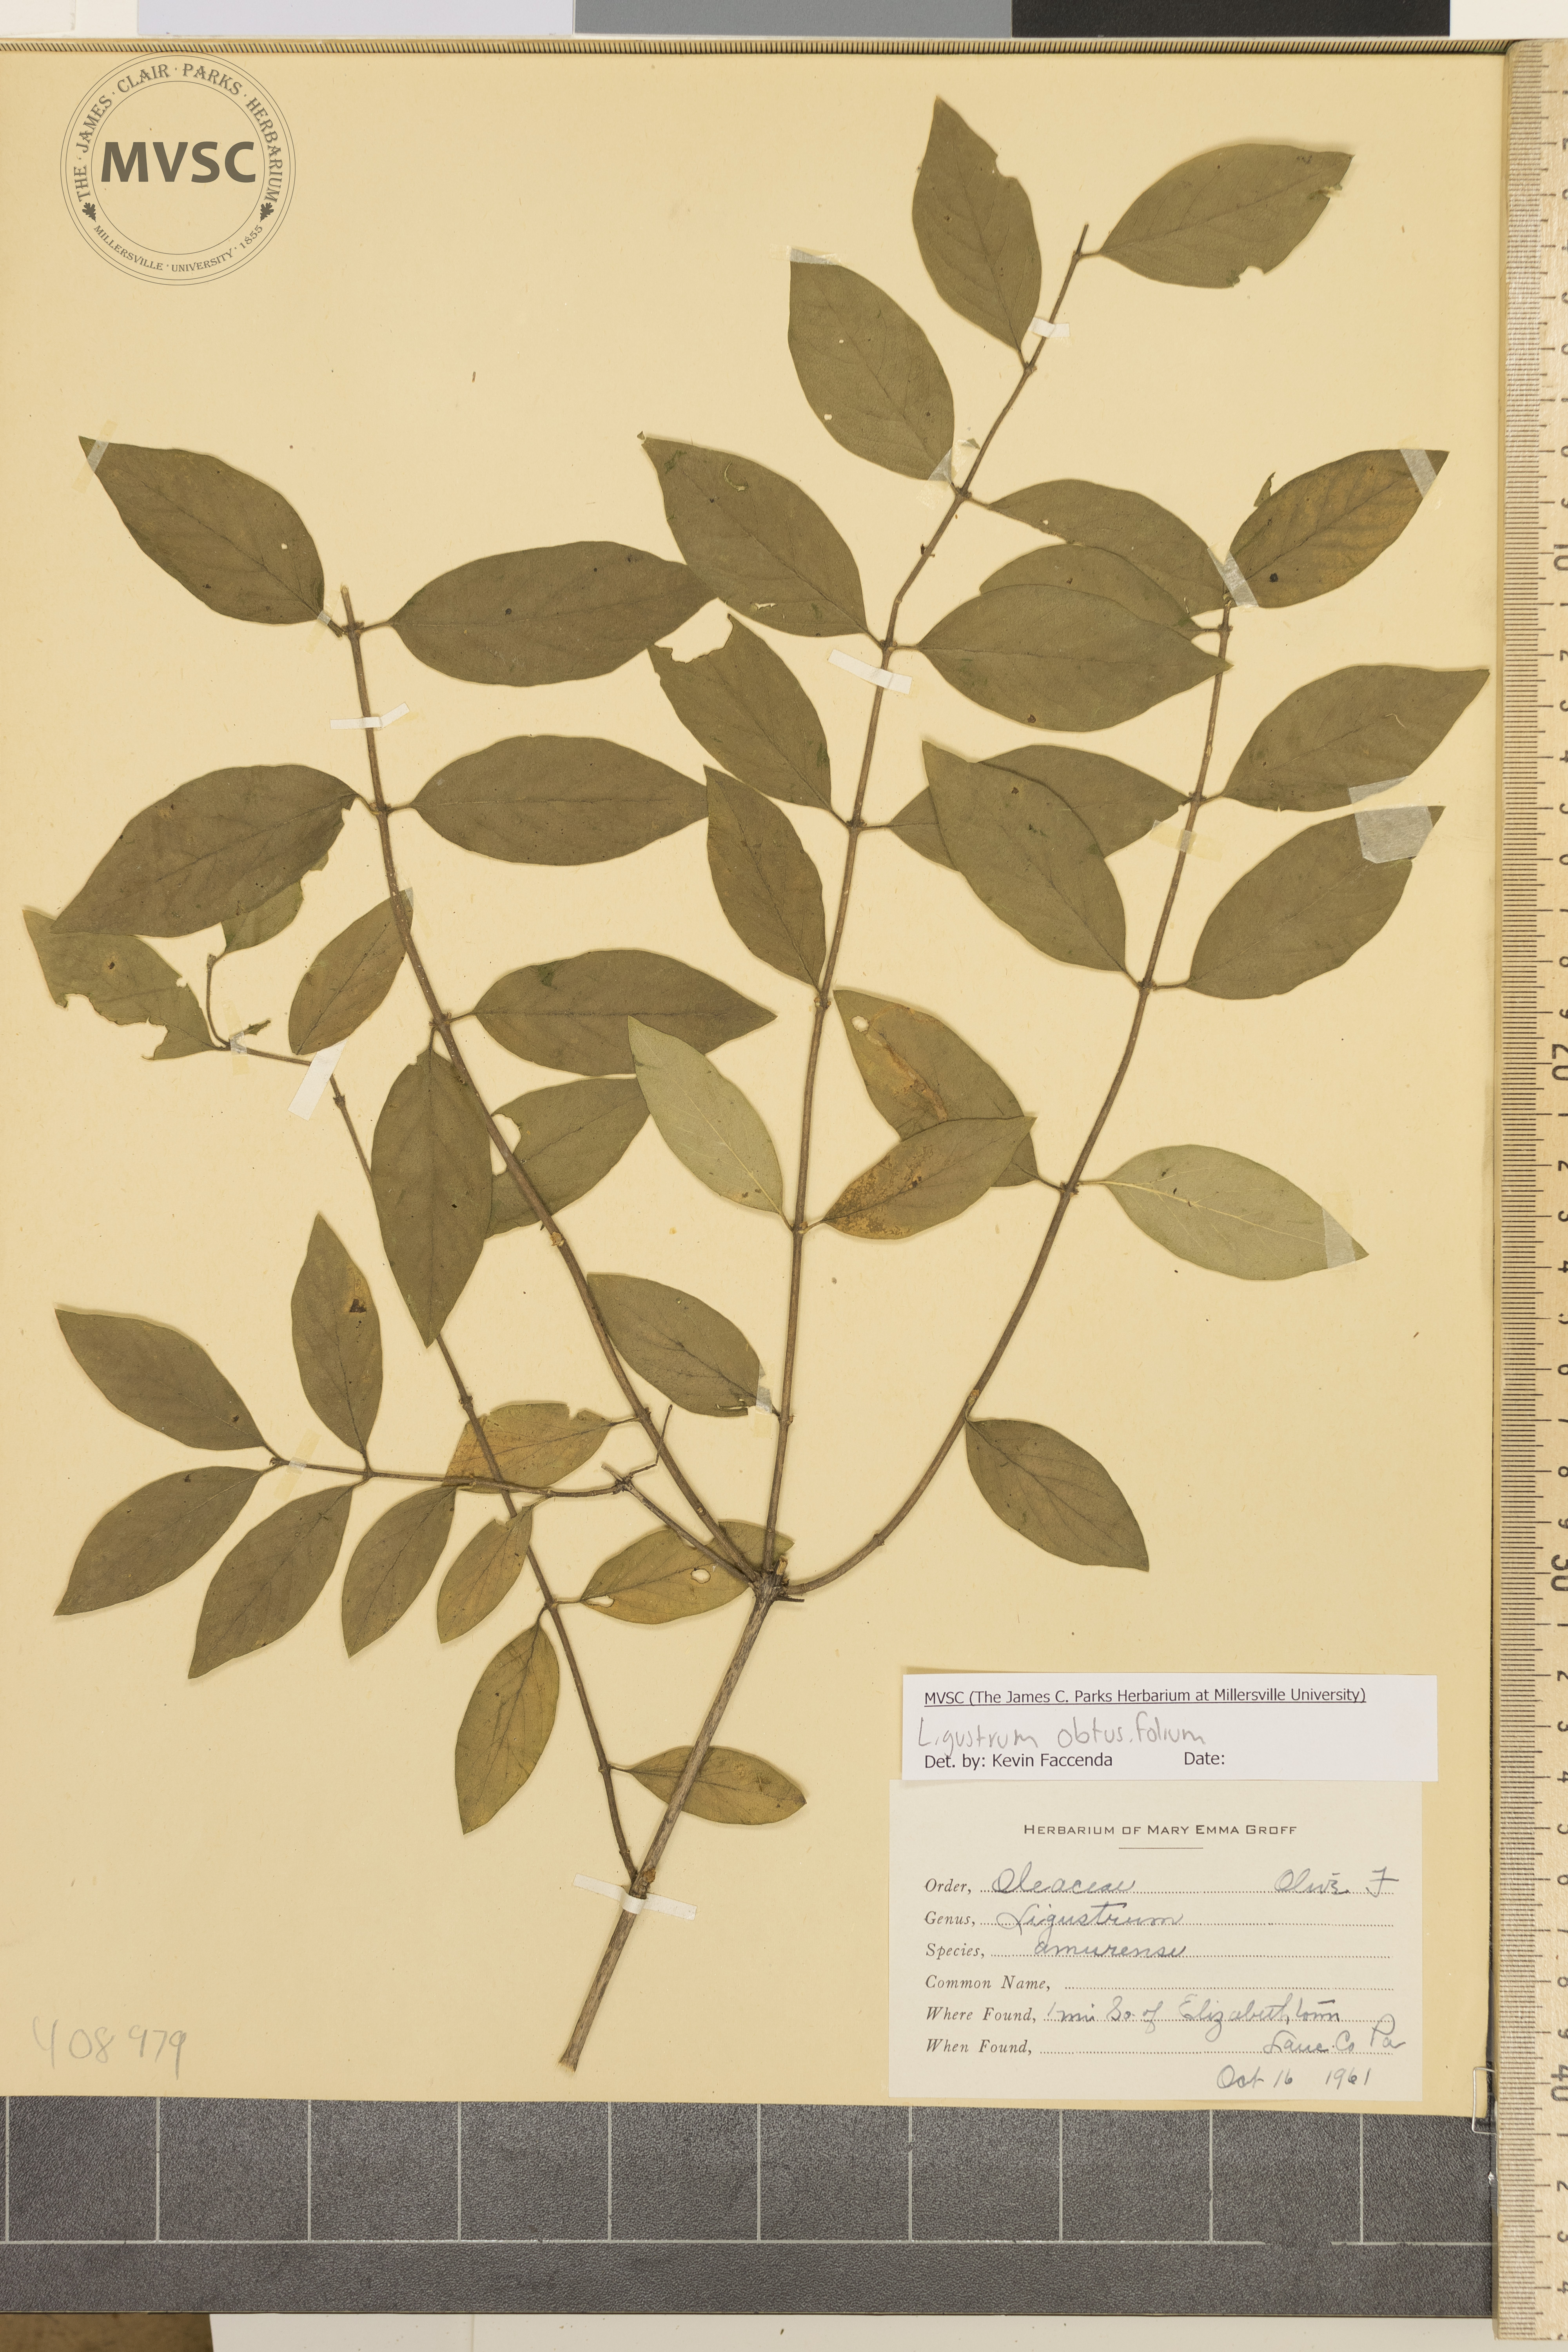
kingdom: Plantae
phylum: Tracheophyta
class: Magnoliopsida
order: Lamiales
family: Oleaceae
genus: Ligustrum
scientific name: Ligustrum obtusifolium
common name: Privet
